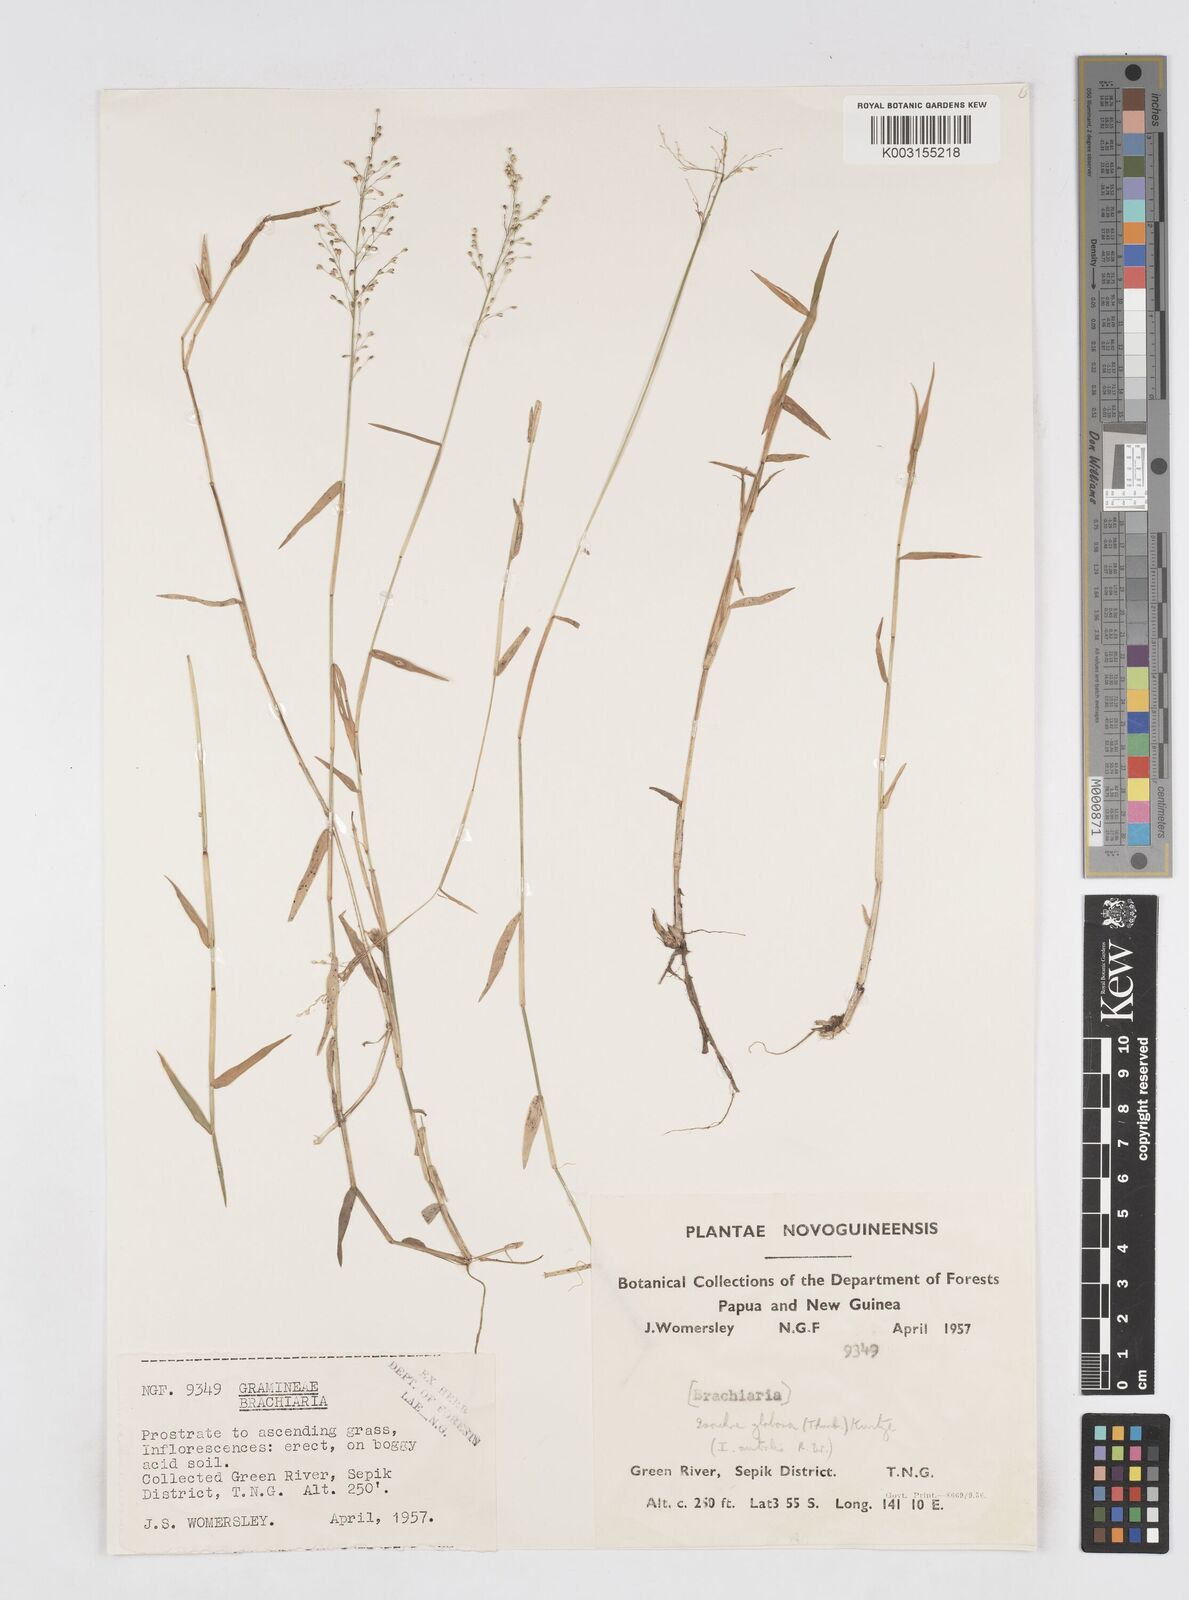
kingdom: Plantae
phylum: Tracheophyta
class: Liliopsida
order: Poales
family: Poaceae
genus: Isachne
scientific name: Isachne globosa
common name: Swamp millet
